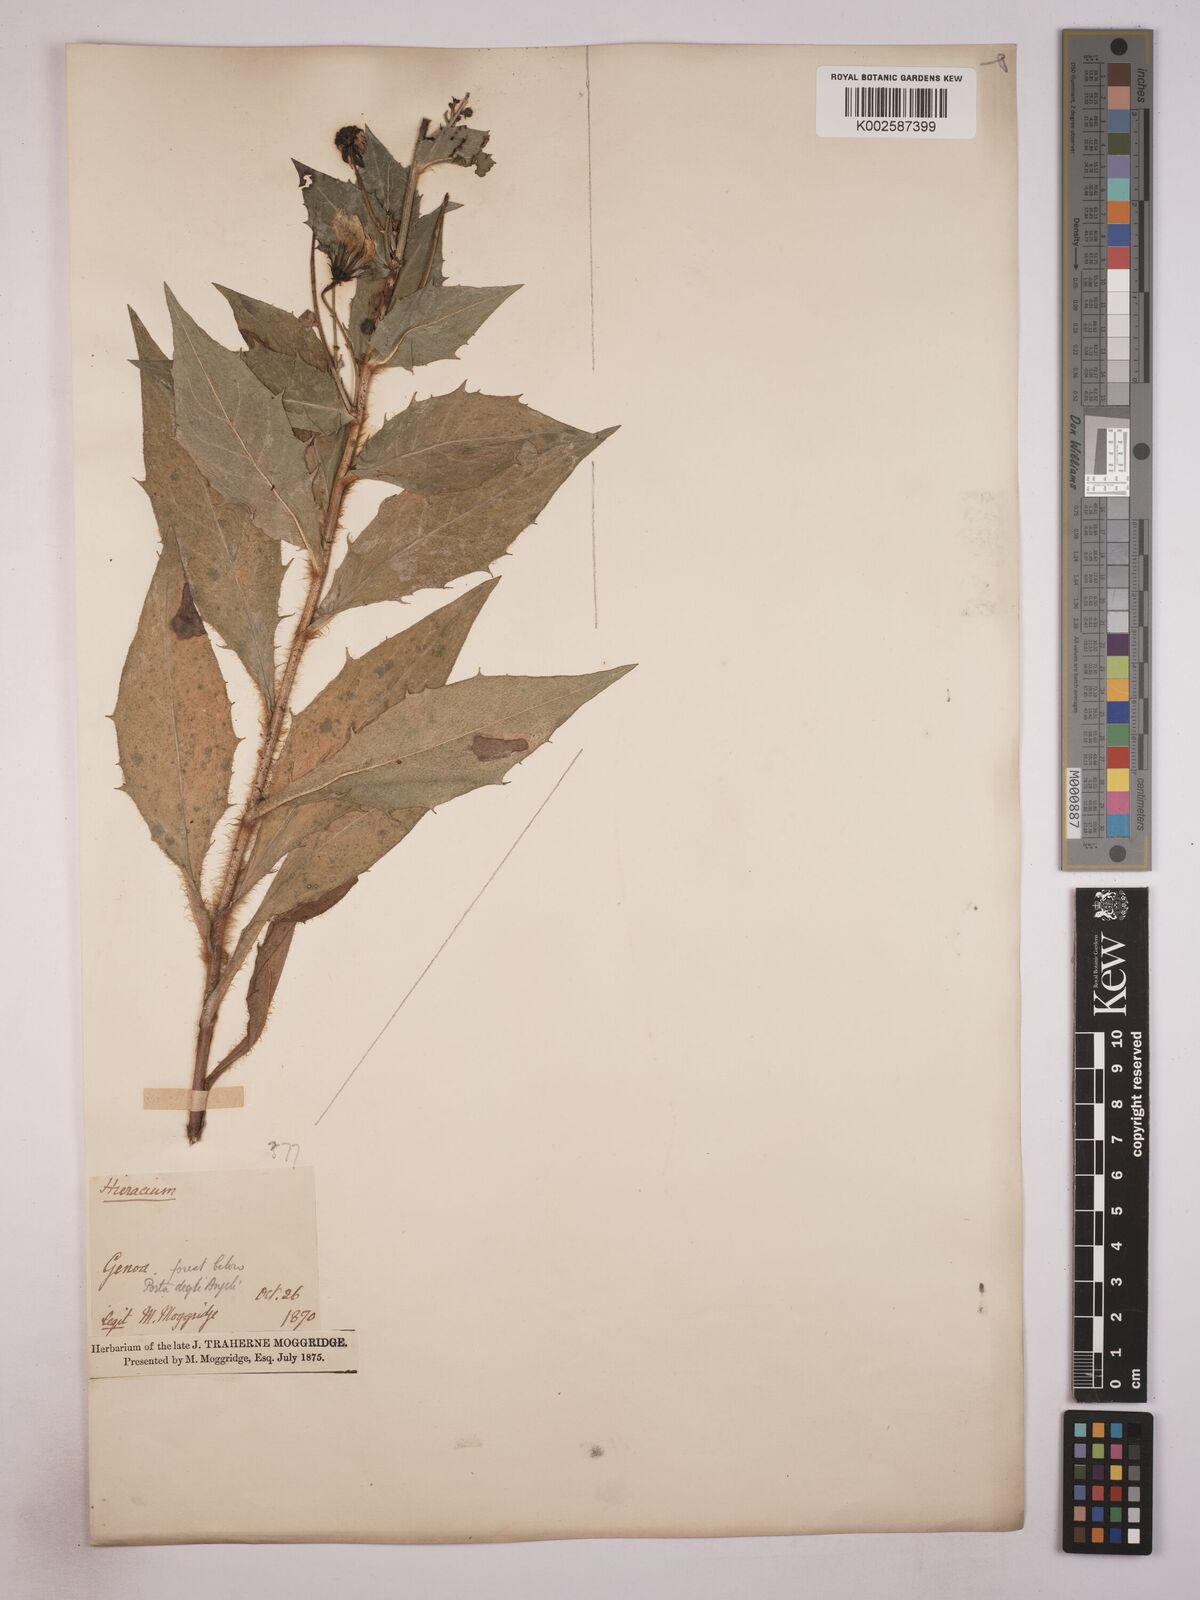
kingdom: Plantae
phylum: Tracheophyta
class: Magnoliopsida
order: Asterales
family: Asteraceae
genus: Hieracium
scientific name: Hieracium sabaudum
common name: New england hawkweed
